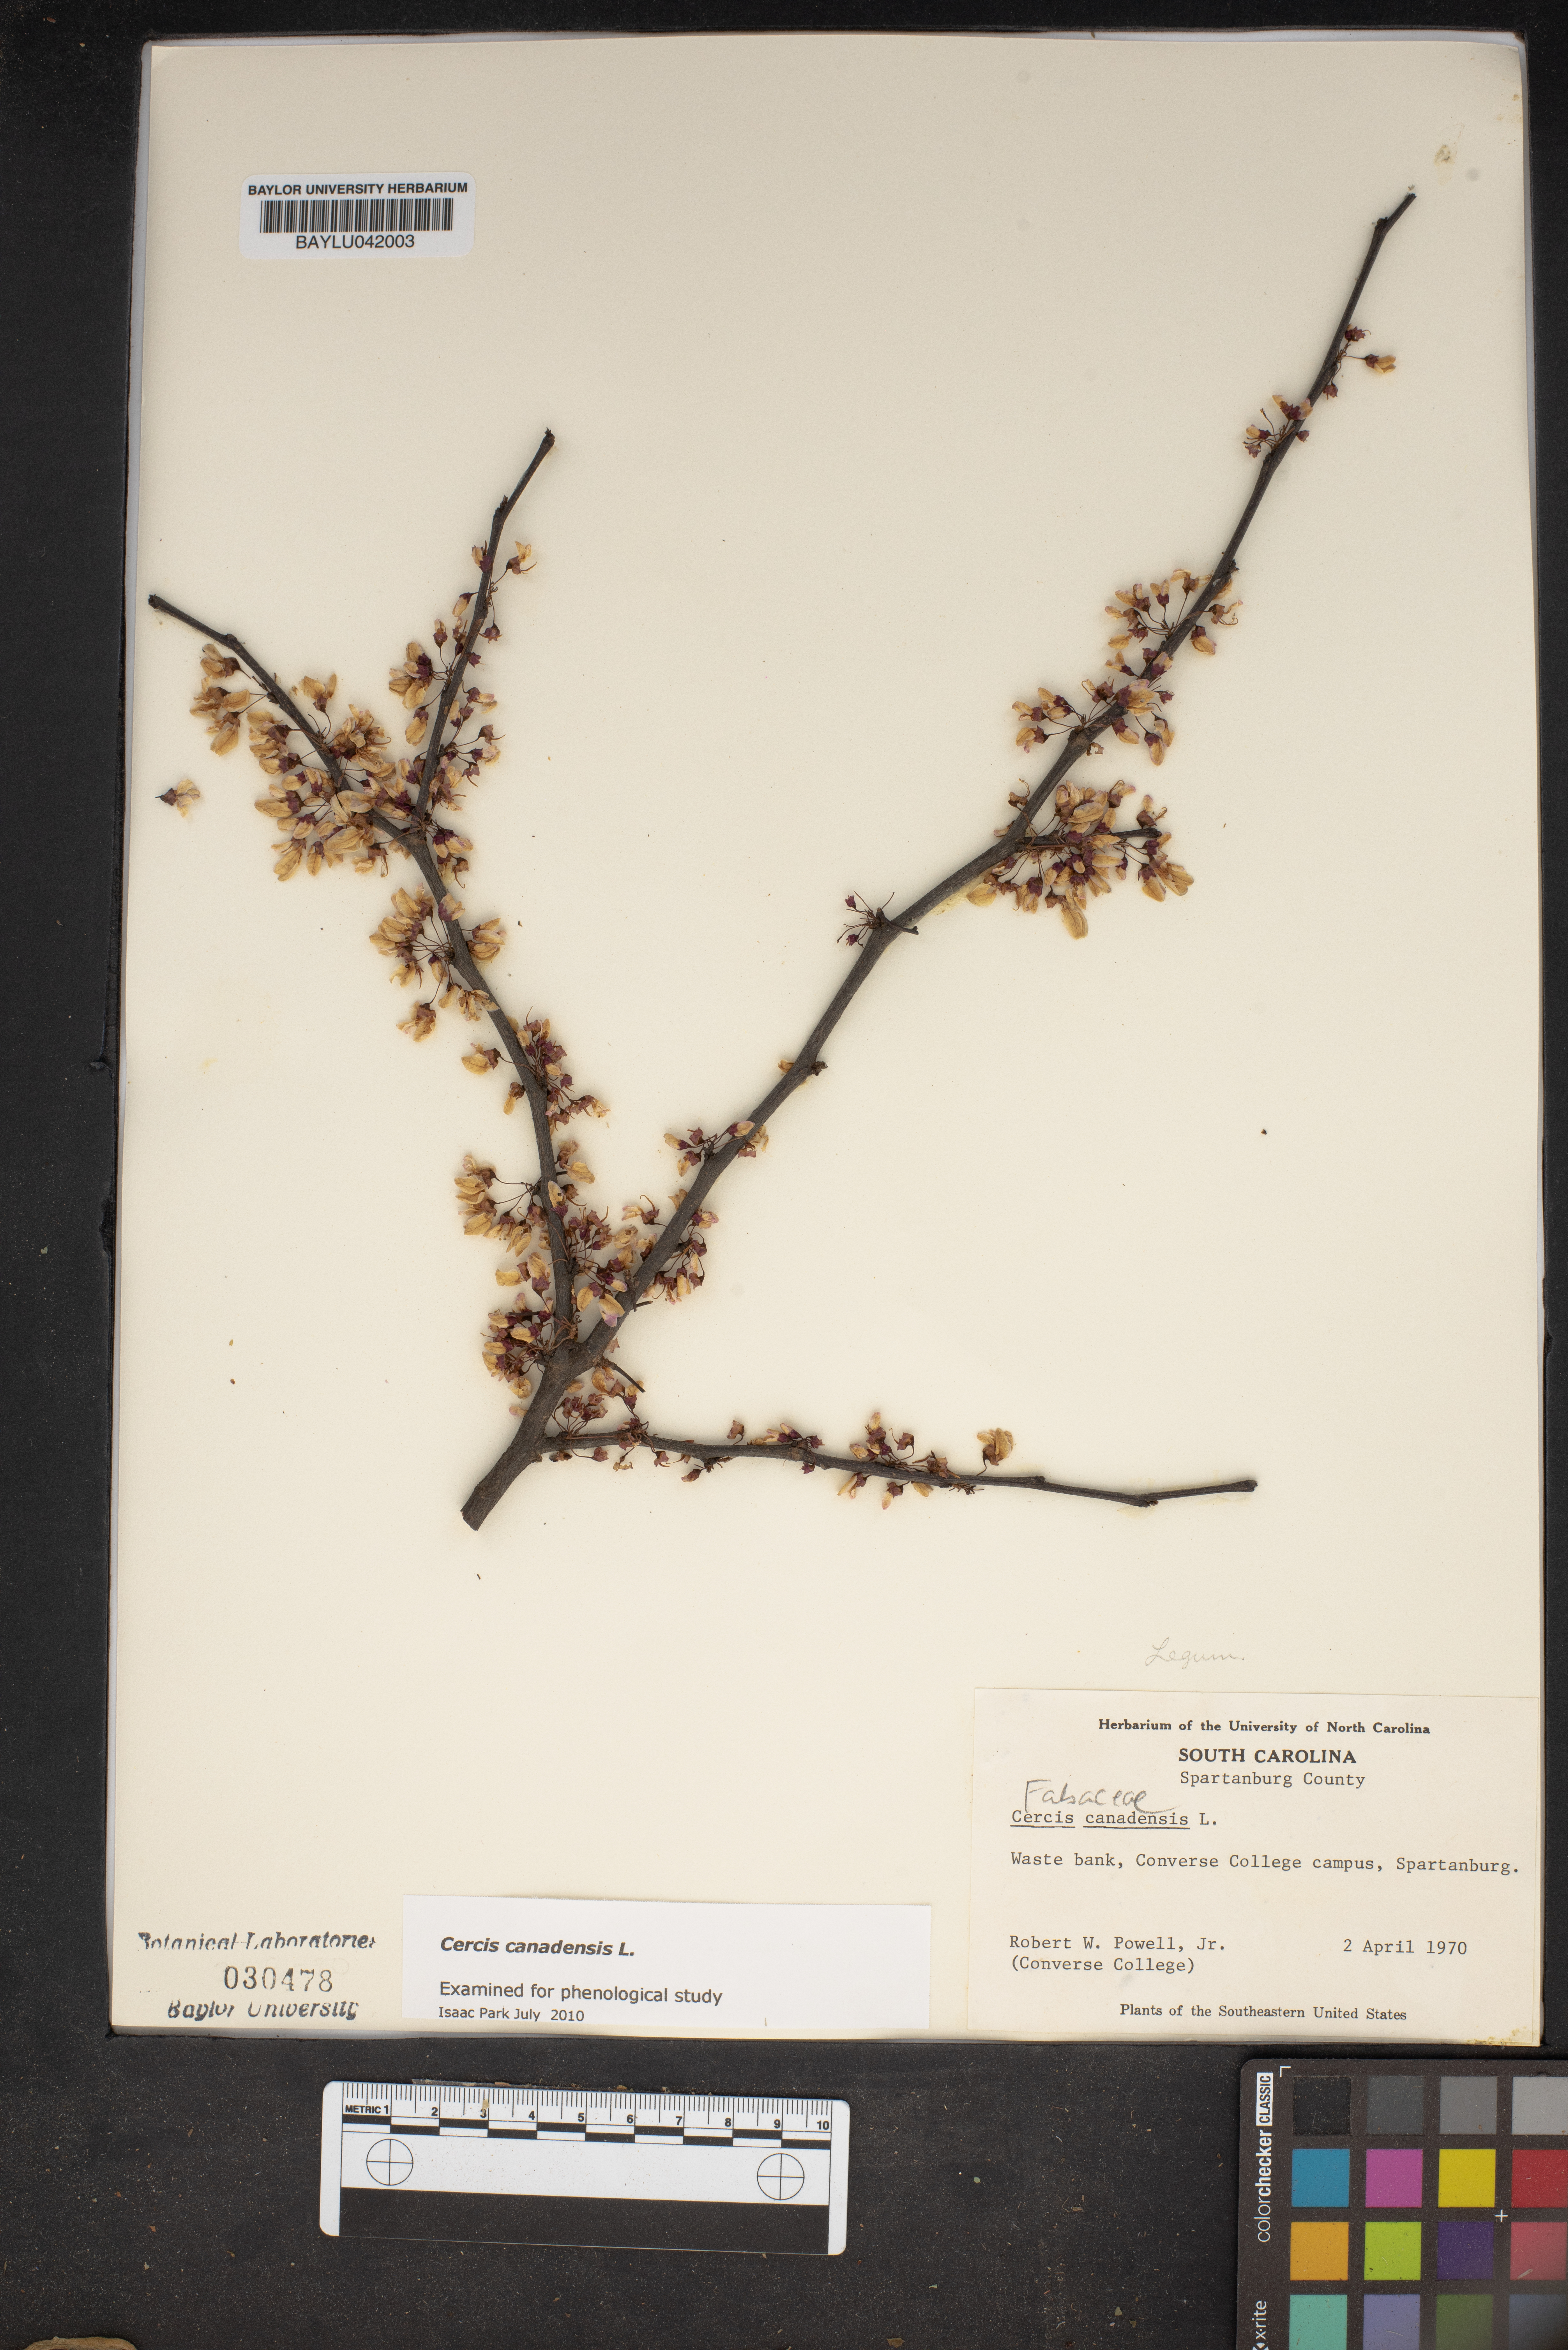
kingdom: Plantae
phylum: Tracheophyta
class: Magnoliopsida
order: Fabales
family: Fabaceae
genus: Cercis
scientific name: Cercis canadensis
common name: Eastern redbud
